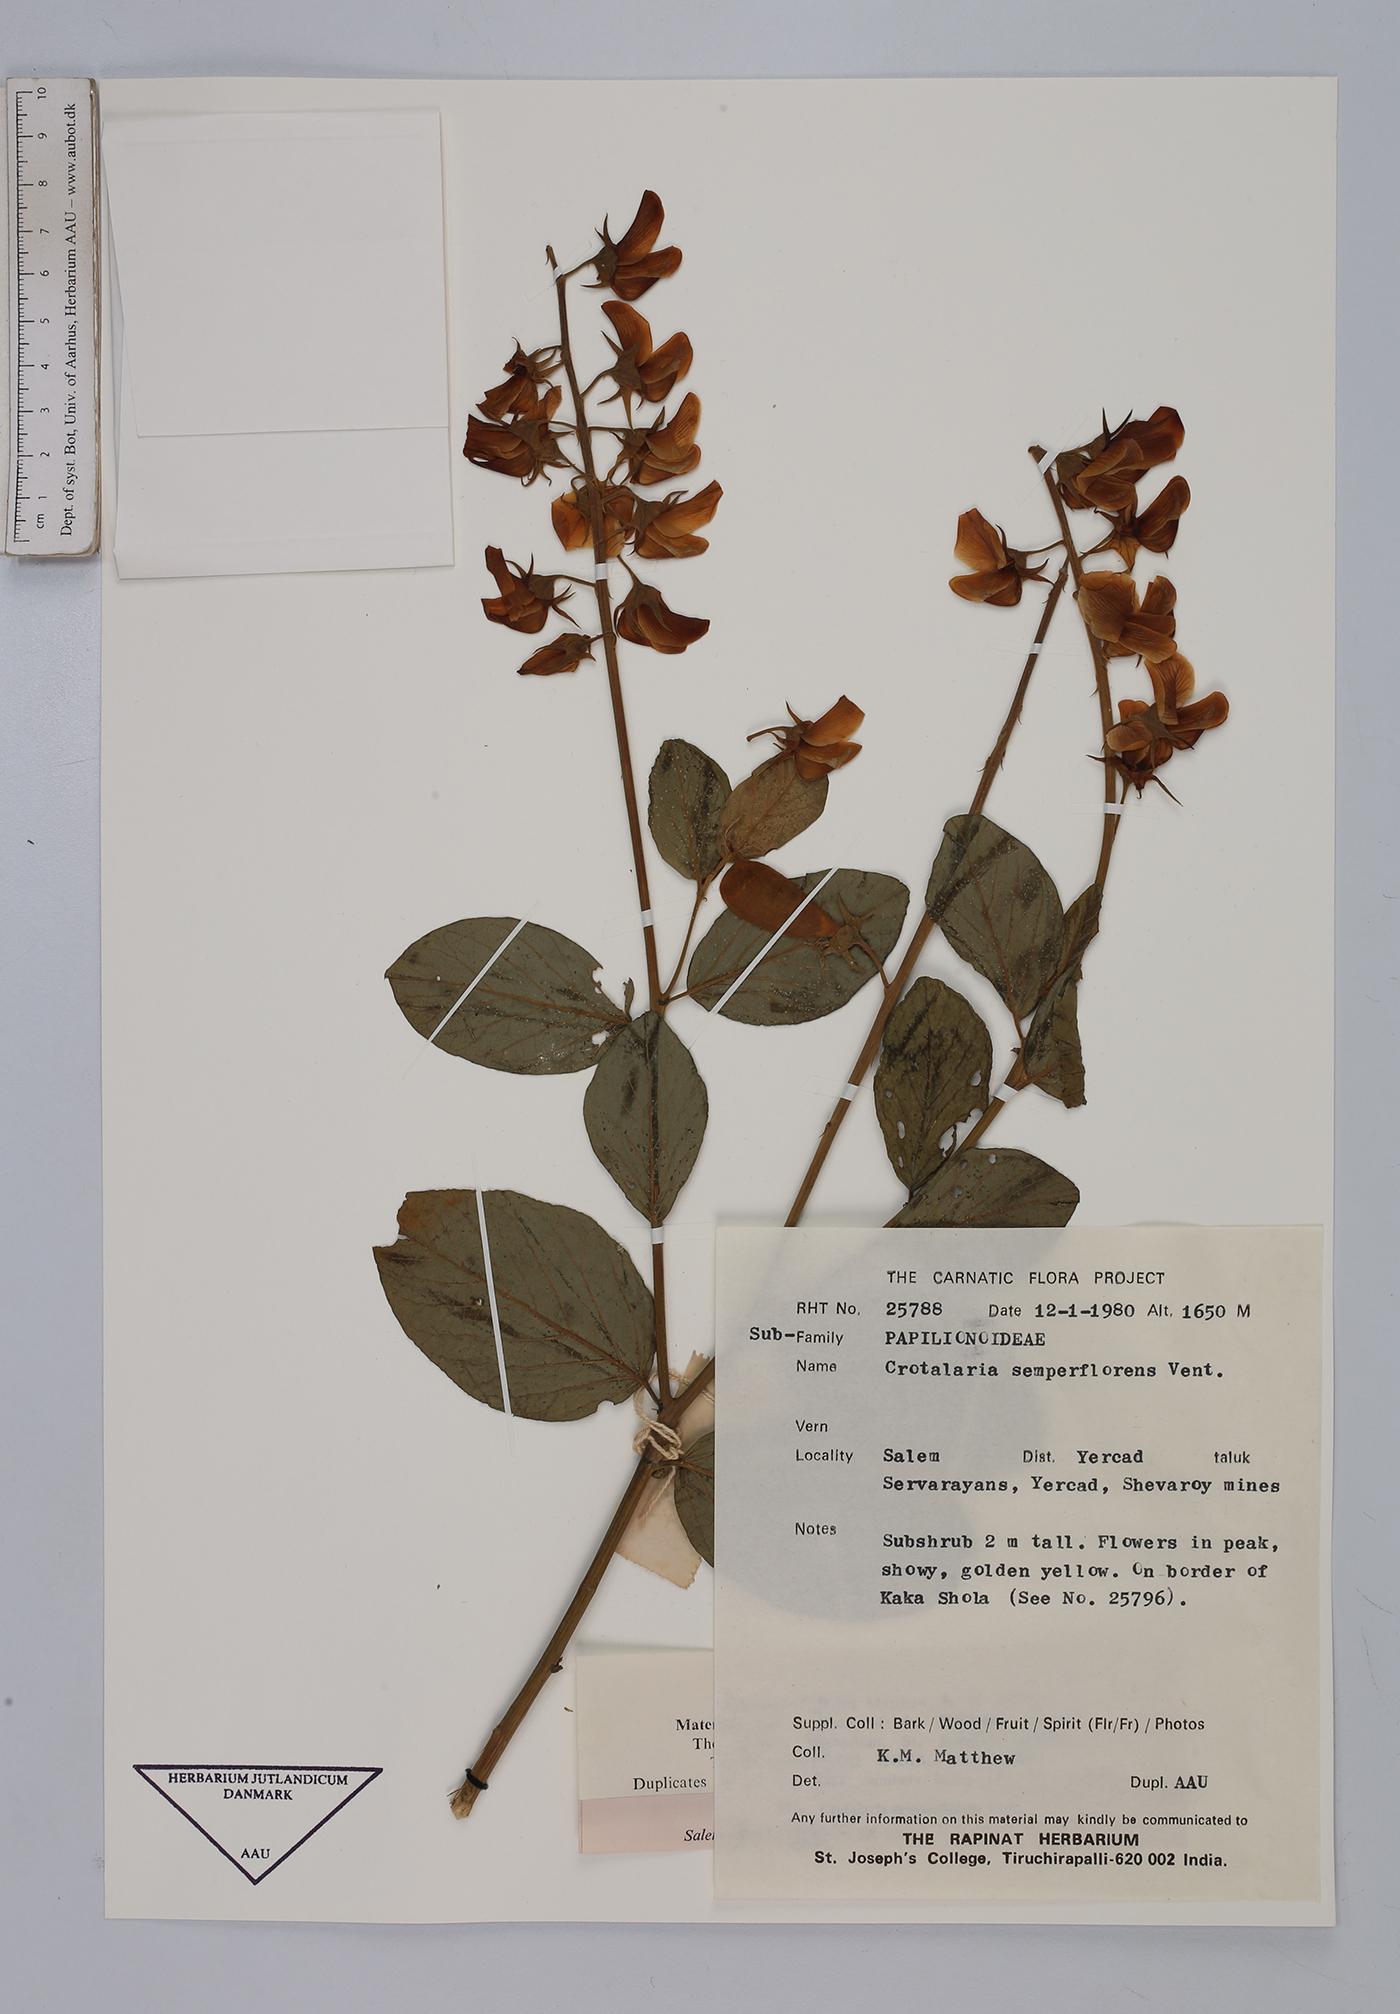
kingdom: Plantae
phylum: Tracheophyta
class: Magnoliopsida
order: Fabales
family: Fabaceae
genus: Crotalaria
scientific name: Crotalaria semperflorens
